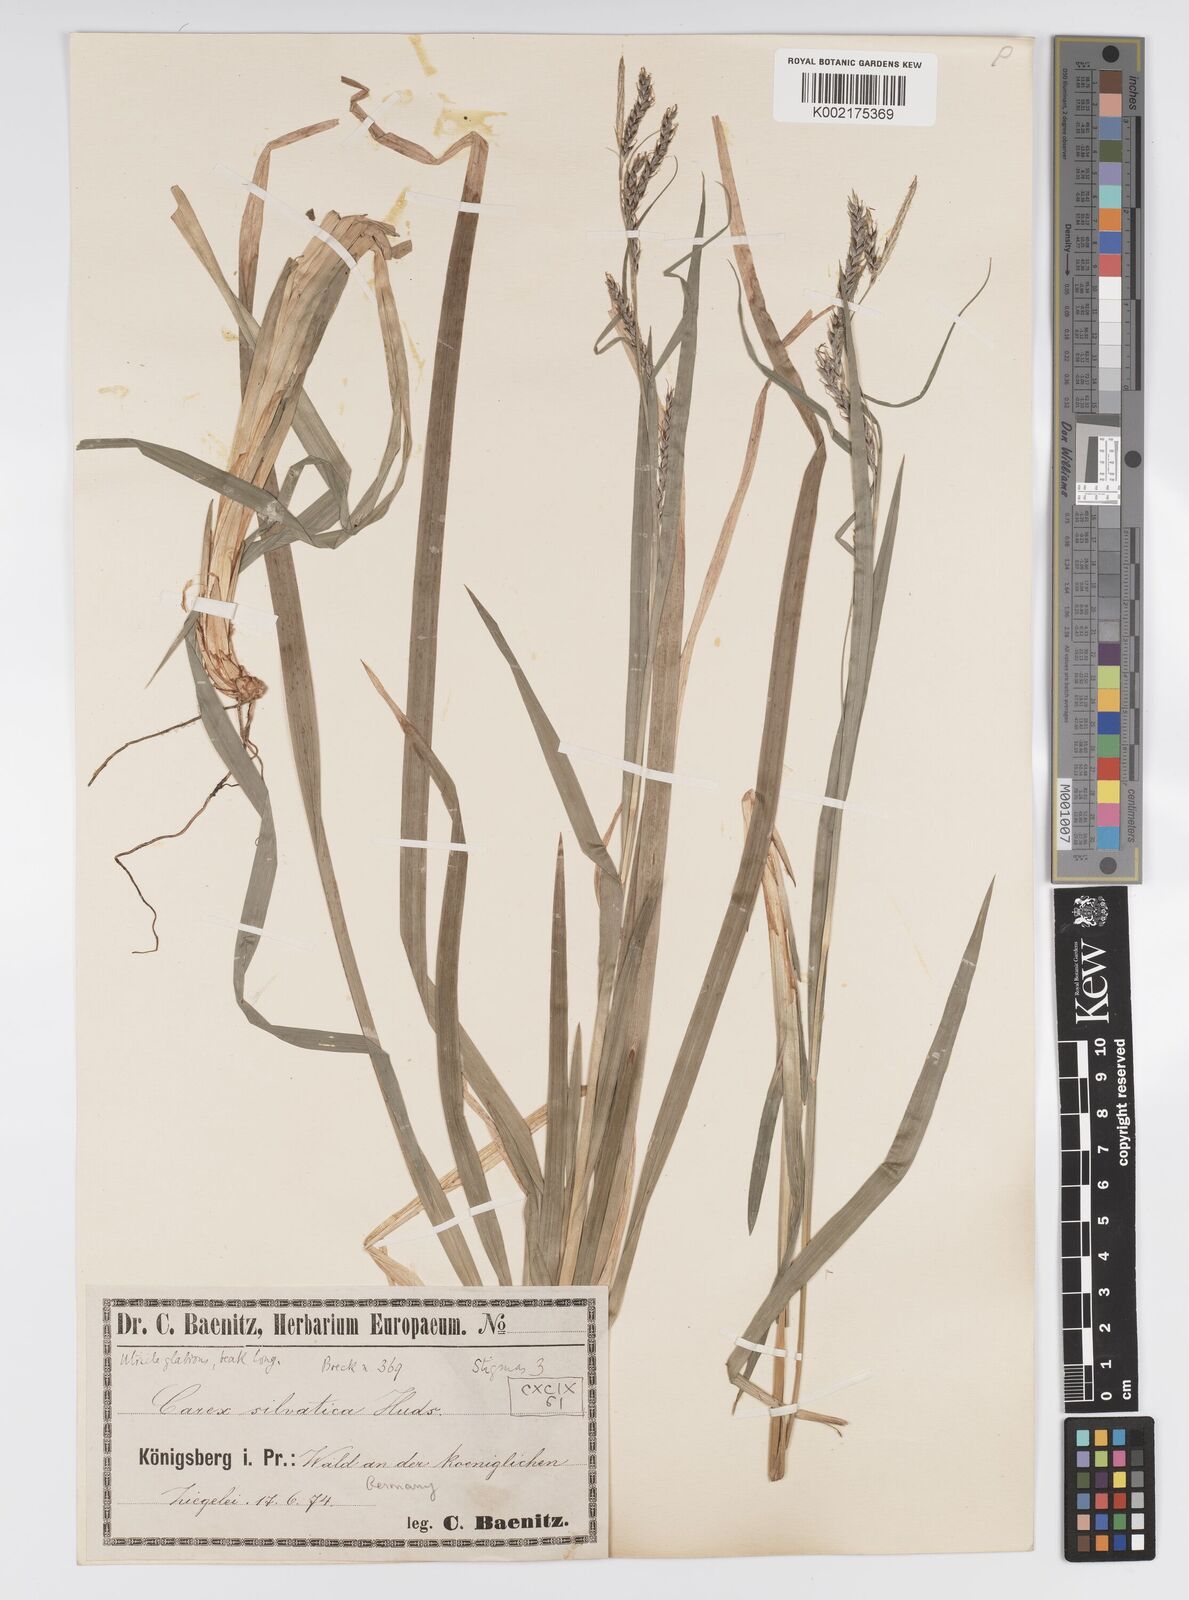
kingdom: Plantae
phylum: Tracheophyta
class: Liliopsida
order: Poales
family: Cyperaceae
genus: Carex
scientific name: Carex sylvatica
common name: Wood-sedge
